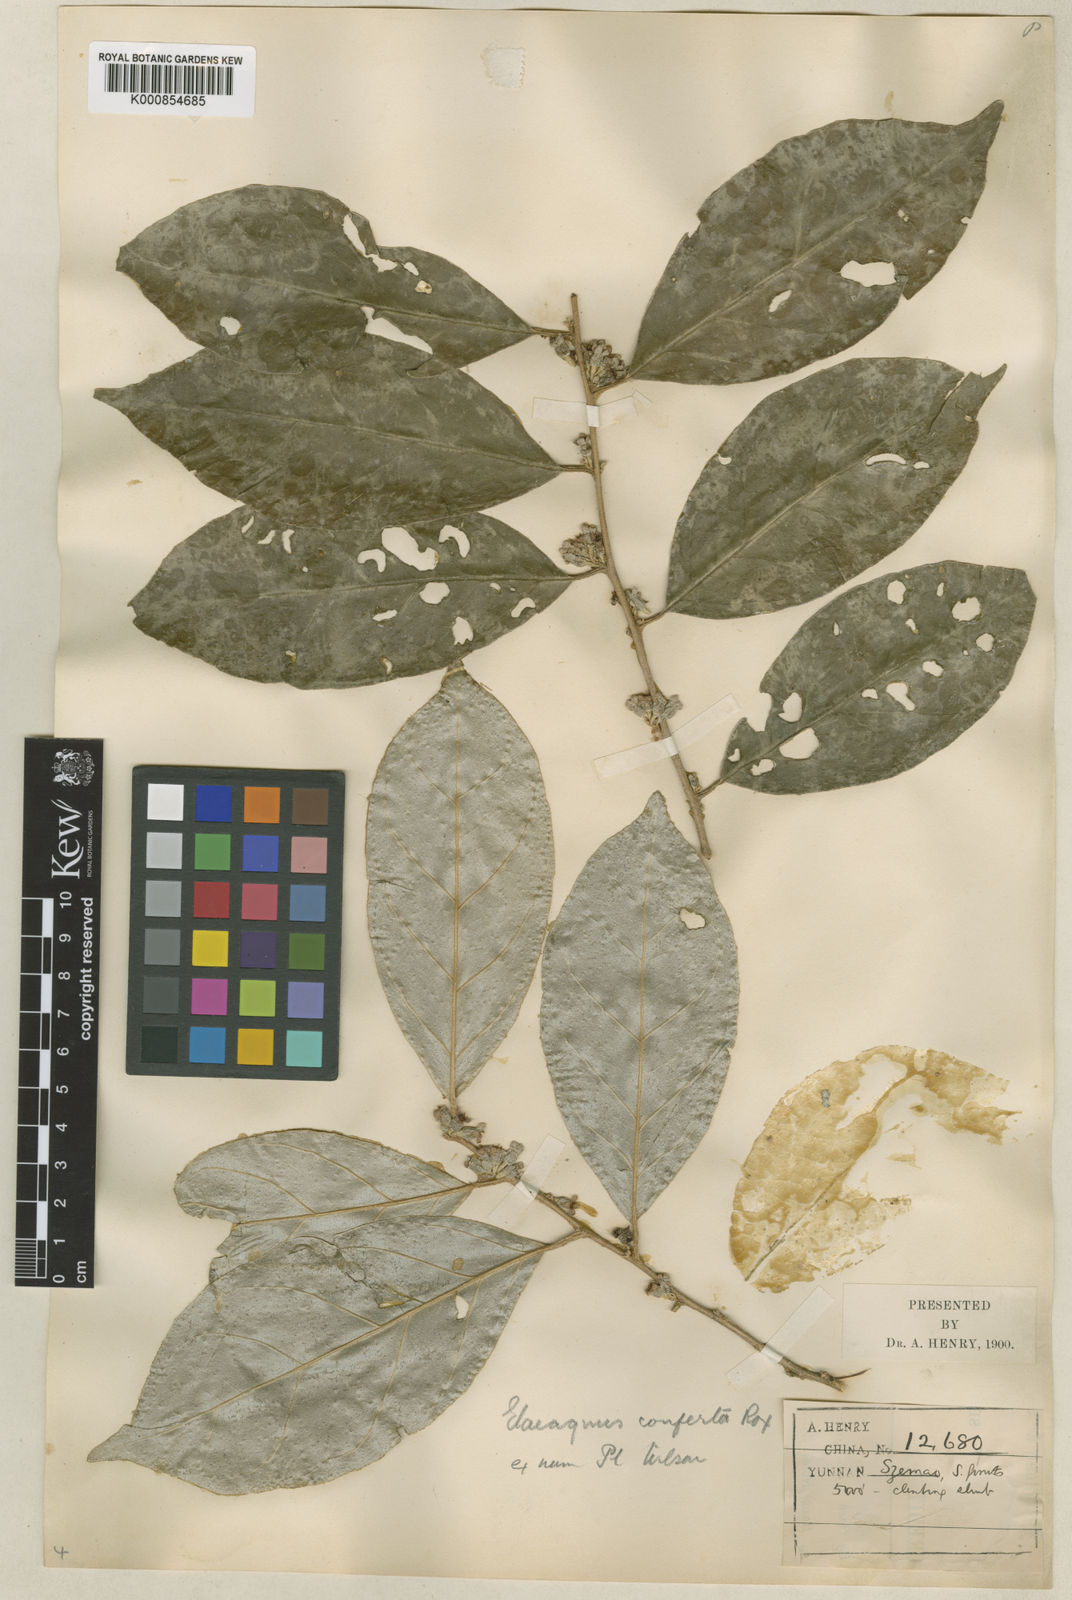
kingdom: Plantae
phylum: Tracheophyta
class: Magnoliopsida
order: Rosales
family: Elaeagnaceae
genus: Elaeagnus
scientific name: Elaeagnus conferta
